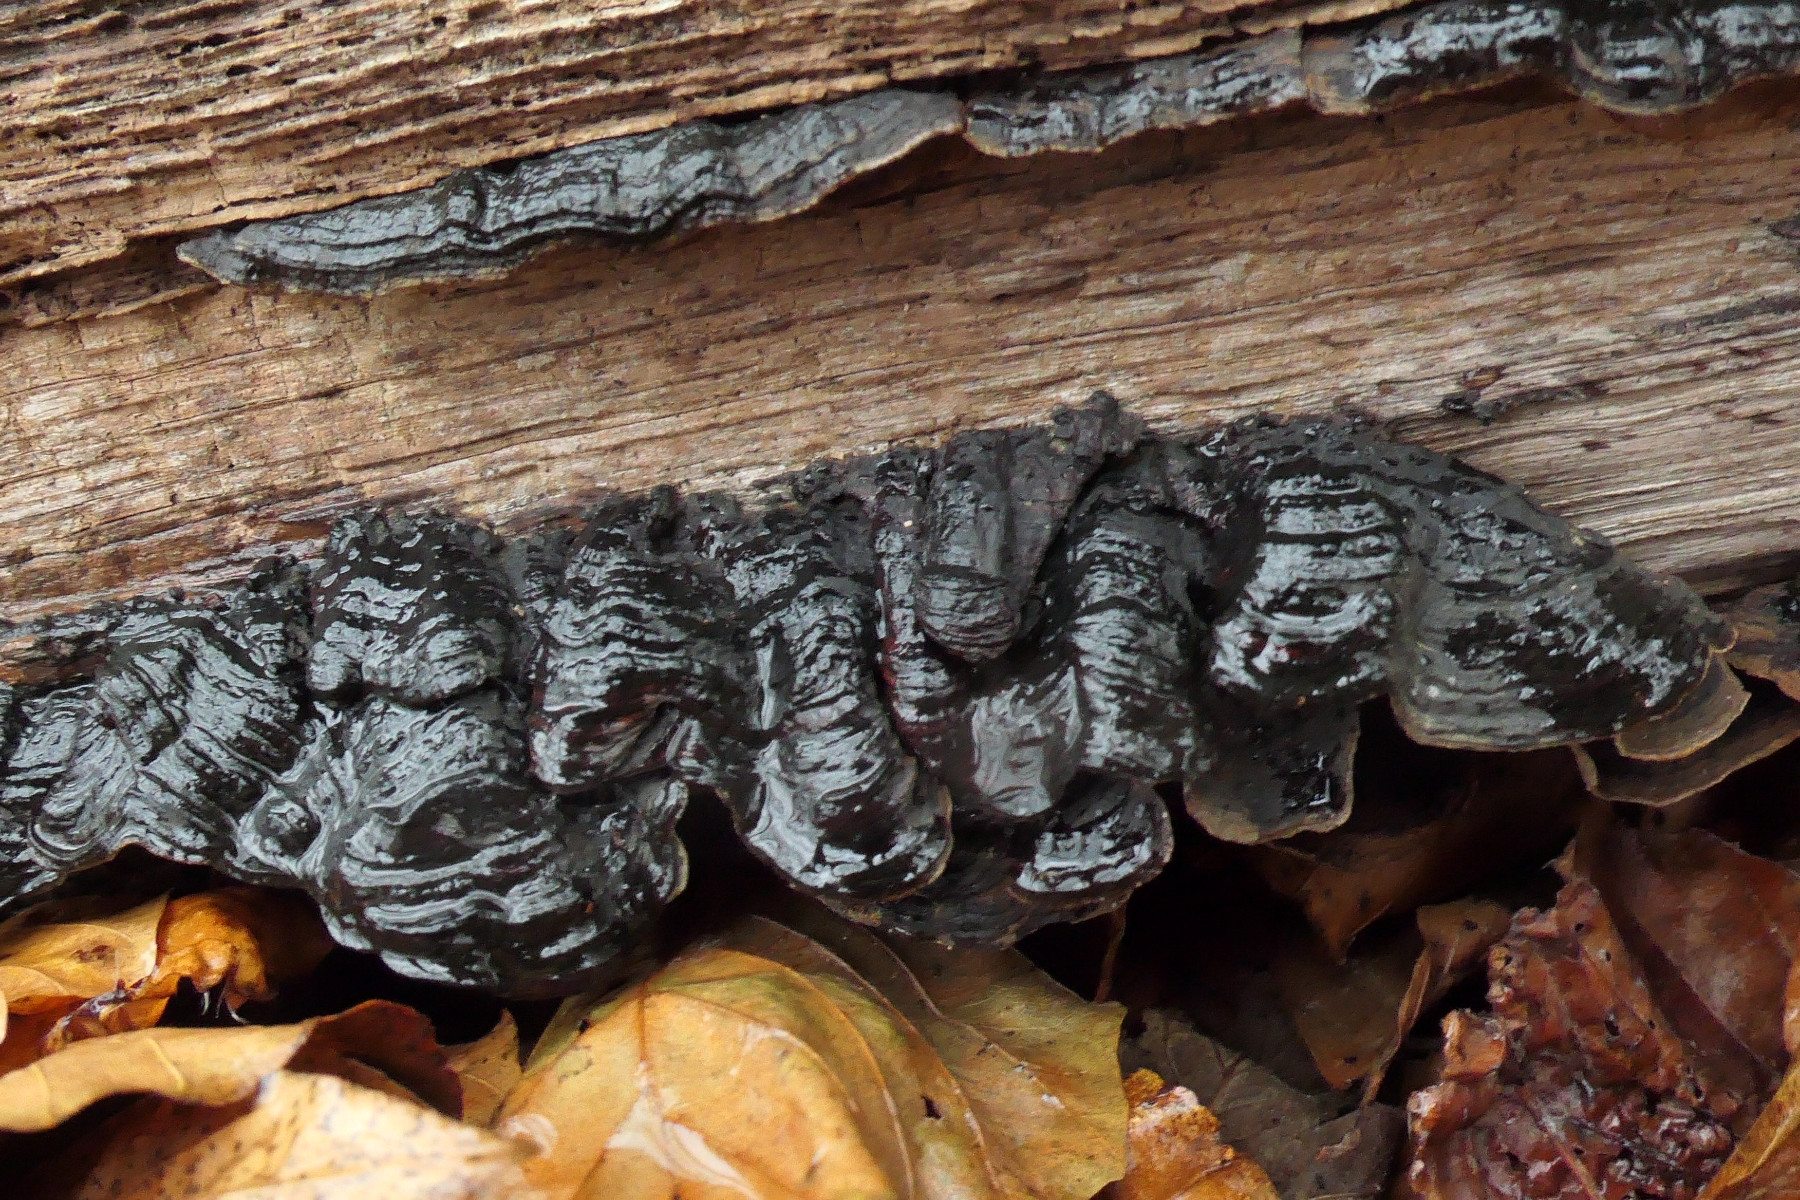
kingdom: Fungi
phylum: Basidiomycota
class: Agaricomycetes
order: Hymenochaetales
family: Hymenochaetaceae
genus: Hymenochaete
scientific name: Hymenochaete rubiginosa
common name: stiv ruslædersvamp
